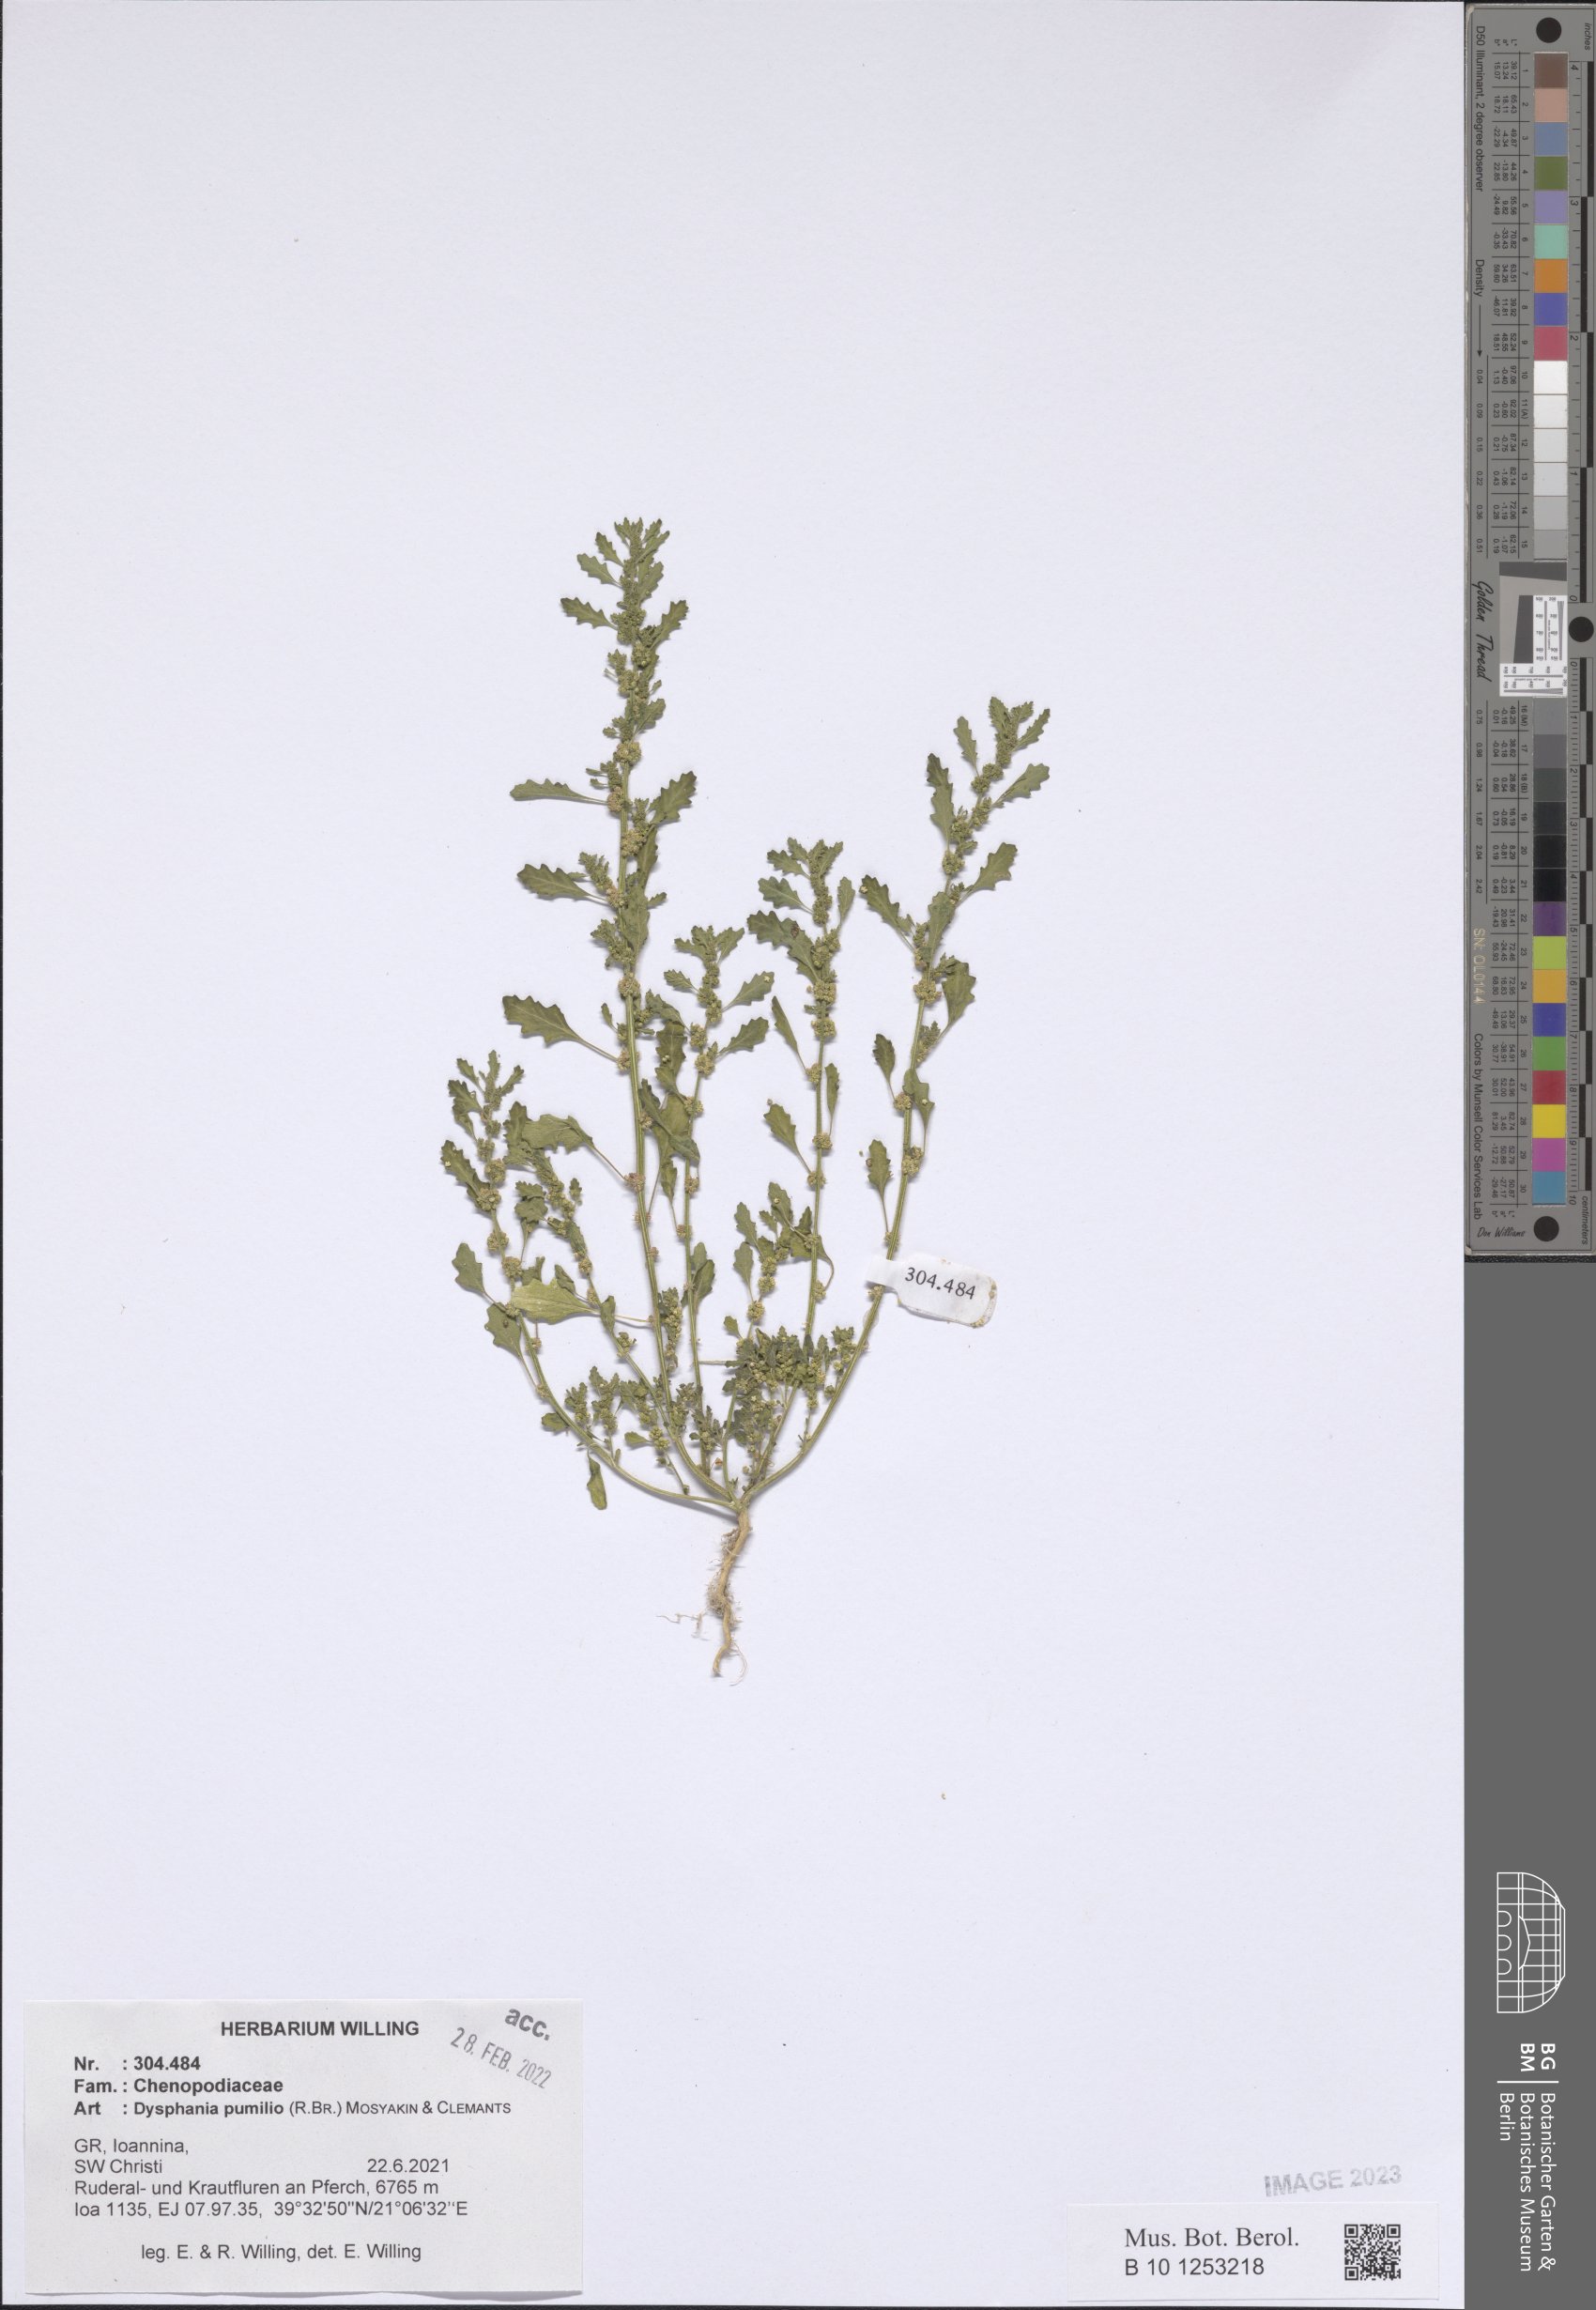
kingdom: Plantae
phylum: Tracheophyta
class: Magnoliopsida
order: Caryophyllales
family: Amaranthaceae
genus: Dysphania
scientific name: Dysphania pumilio
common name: Clammy goosefoot
